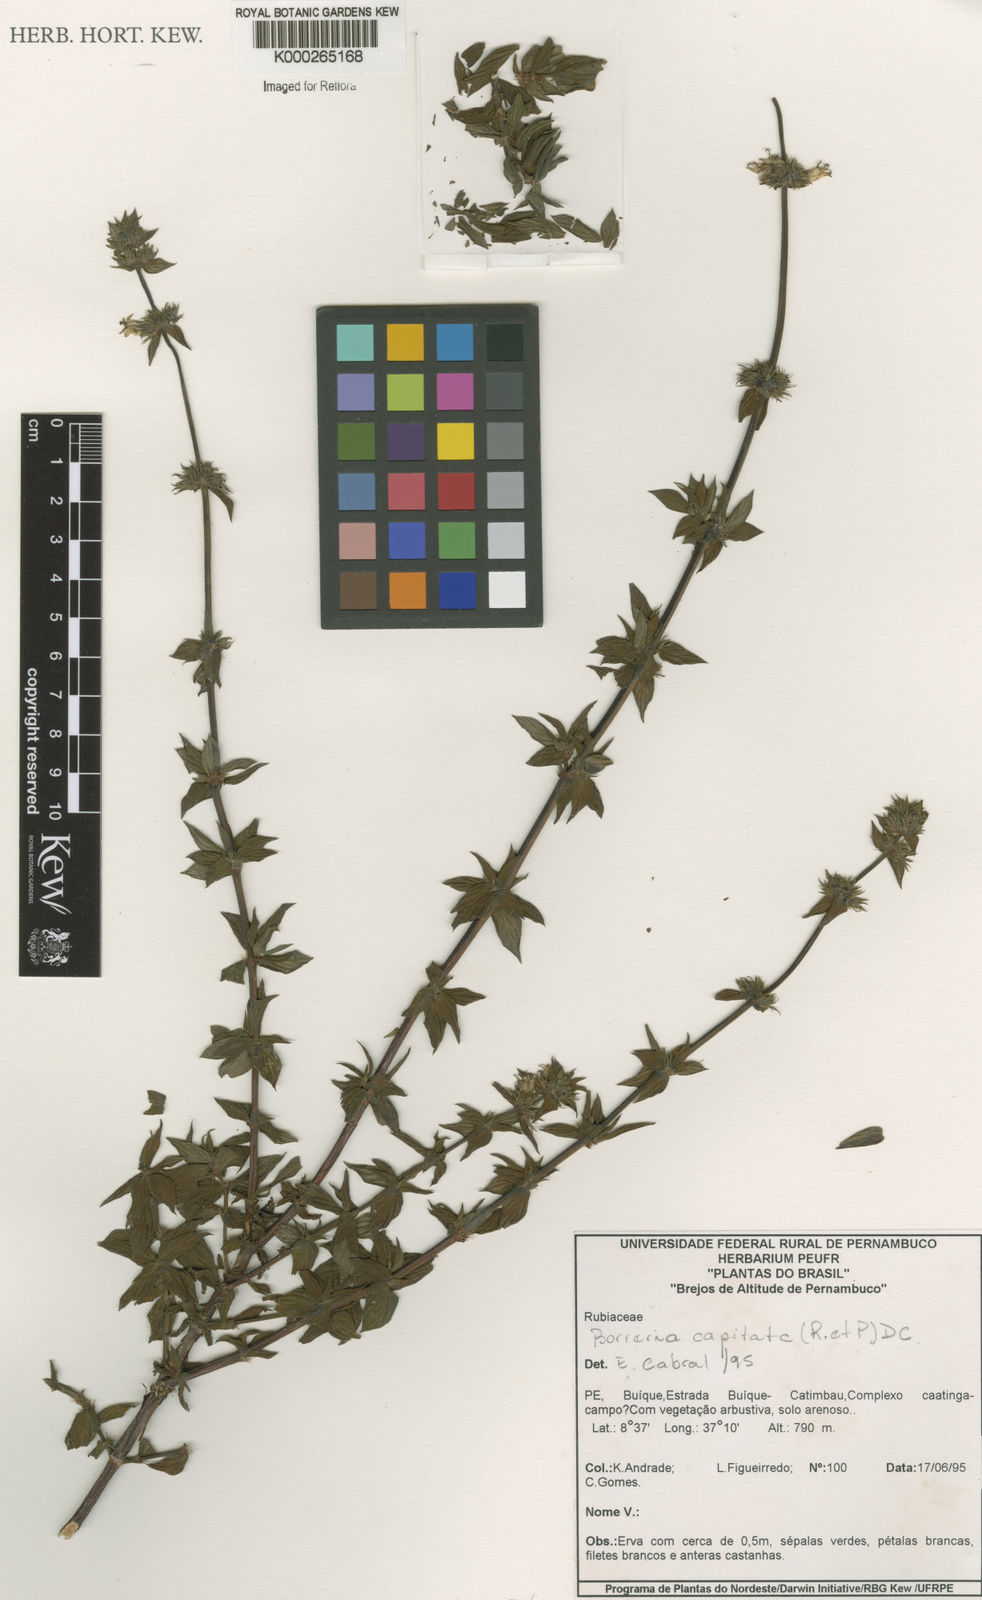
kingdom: Plantae
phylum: Tracheophyta
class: Magnoliopsida
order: Gentianales
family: Rubiaceae
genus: Spermacoce
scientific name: Spermacoce capitata
